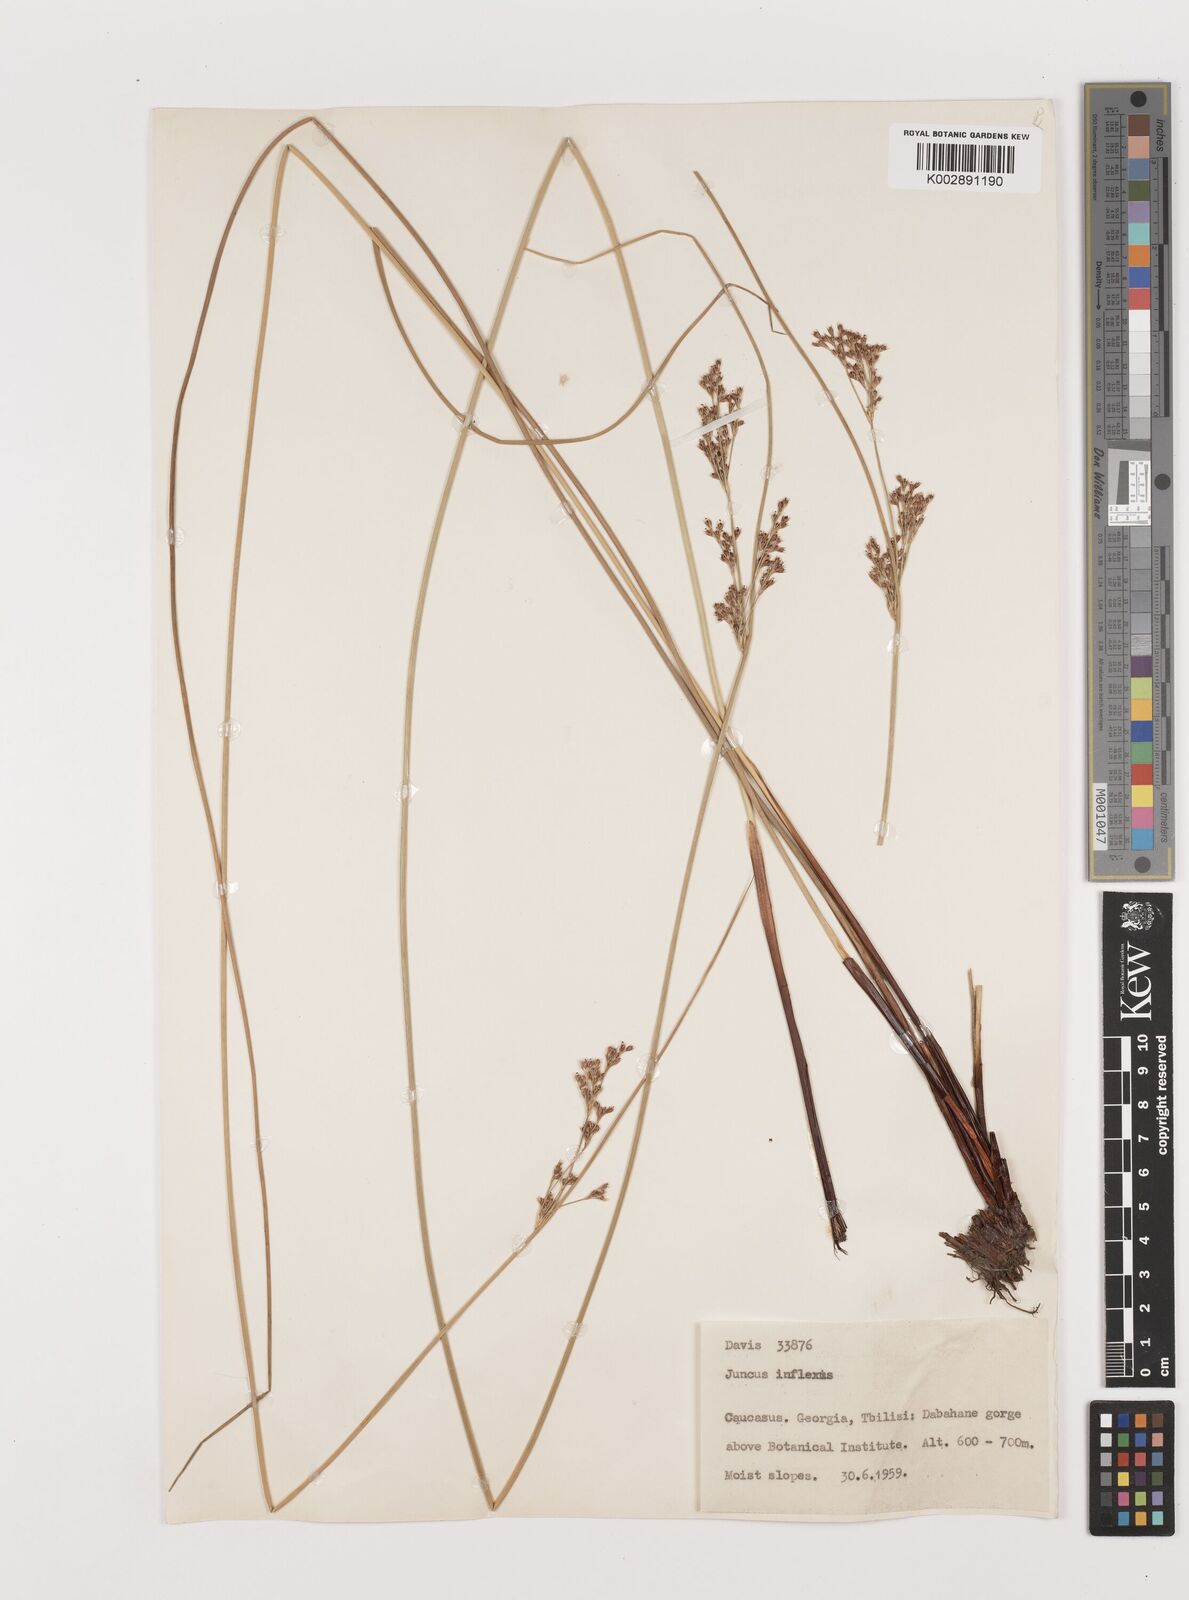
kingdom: Plantae
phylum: Tracheophyta
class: Liliopsida
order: Poales
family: Juncaceae
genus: Juncus
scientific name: Juncus inflexus
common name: Hard rush
